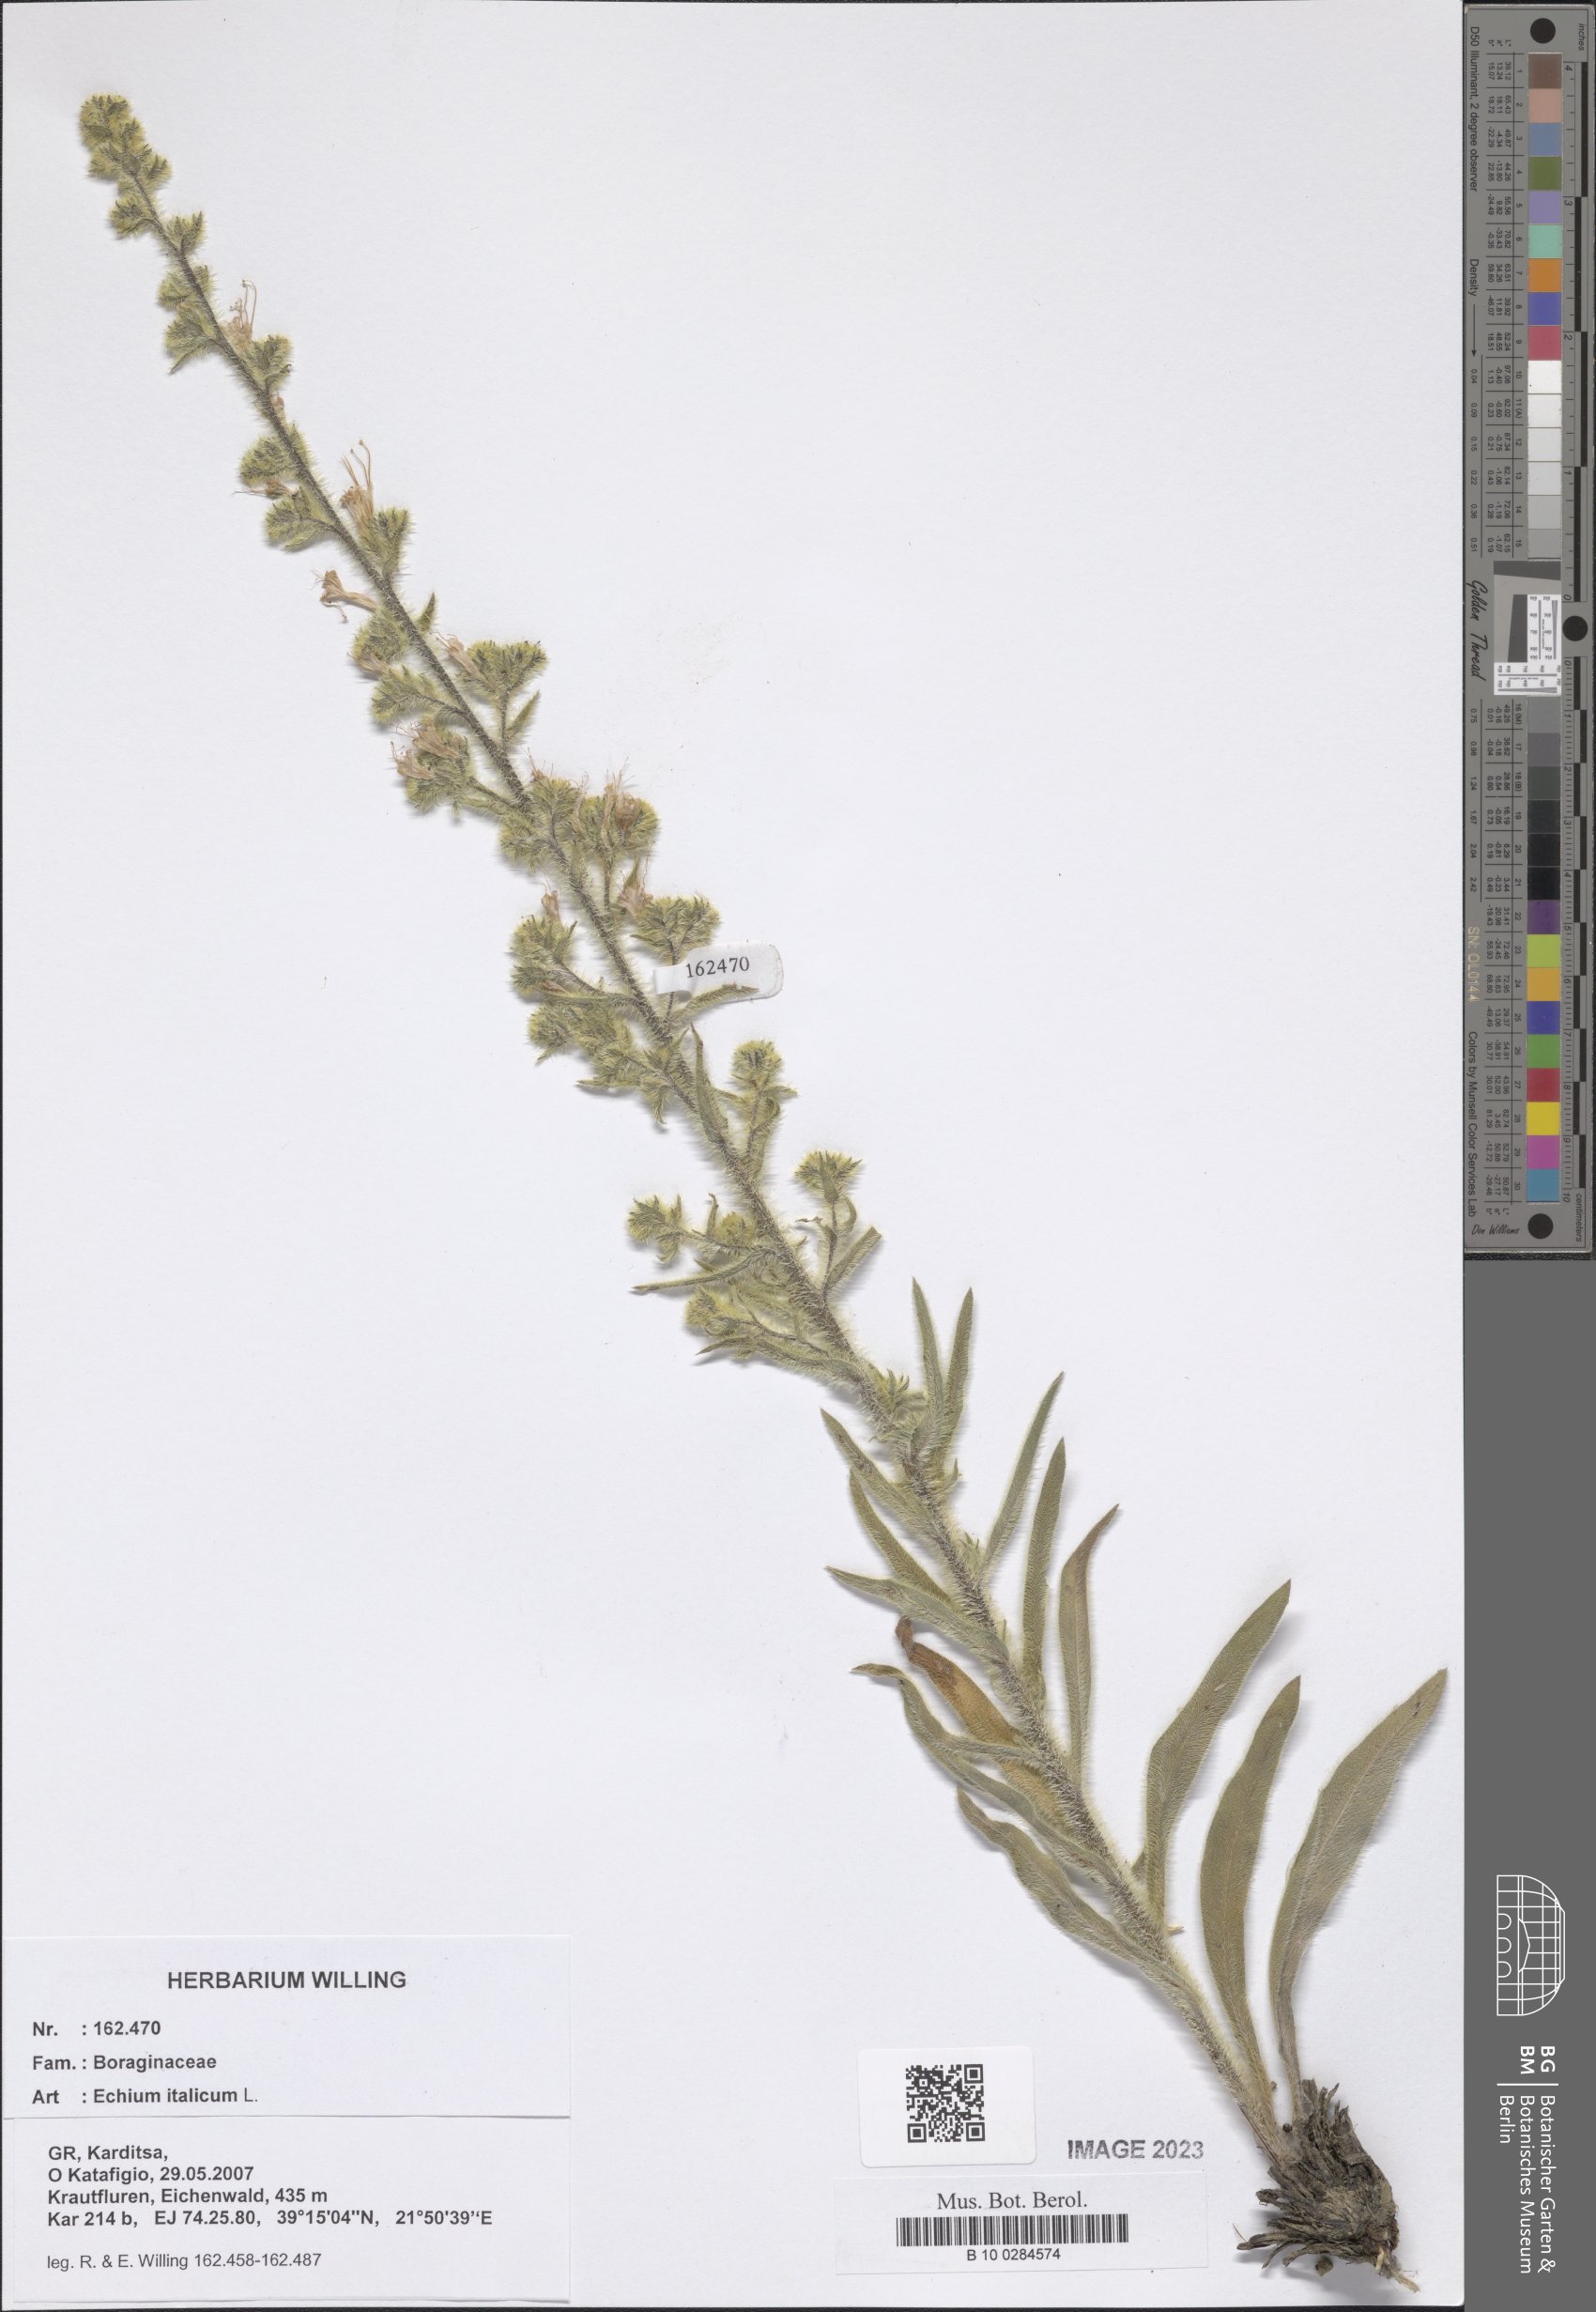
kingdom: Plantae
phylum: Tracheophyta
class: Magnoliopsida
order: Boraginales
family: Boraginaceae
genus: Echium
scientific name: Echium italicum
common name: Italian viper's bugloss
